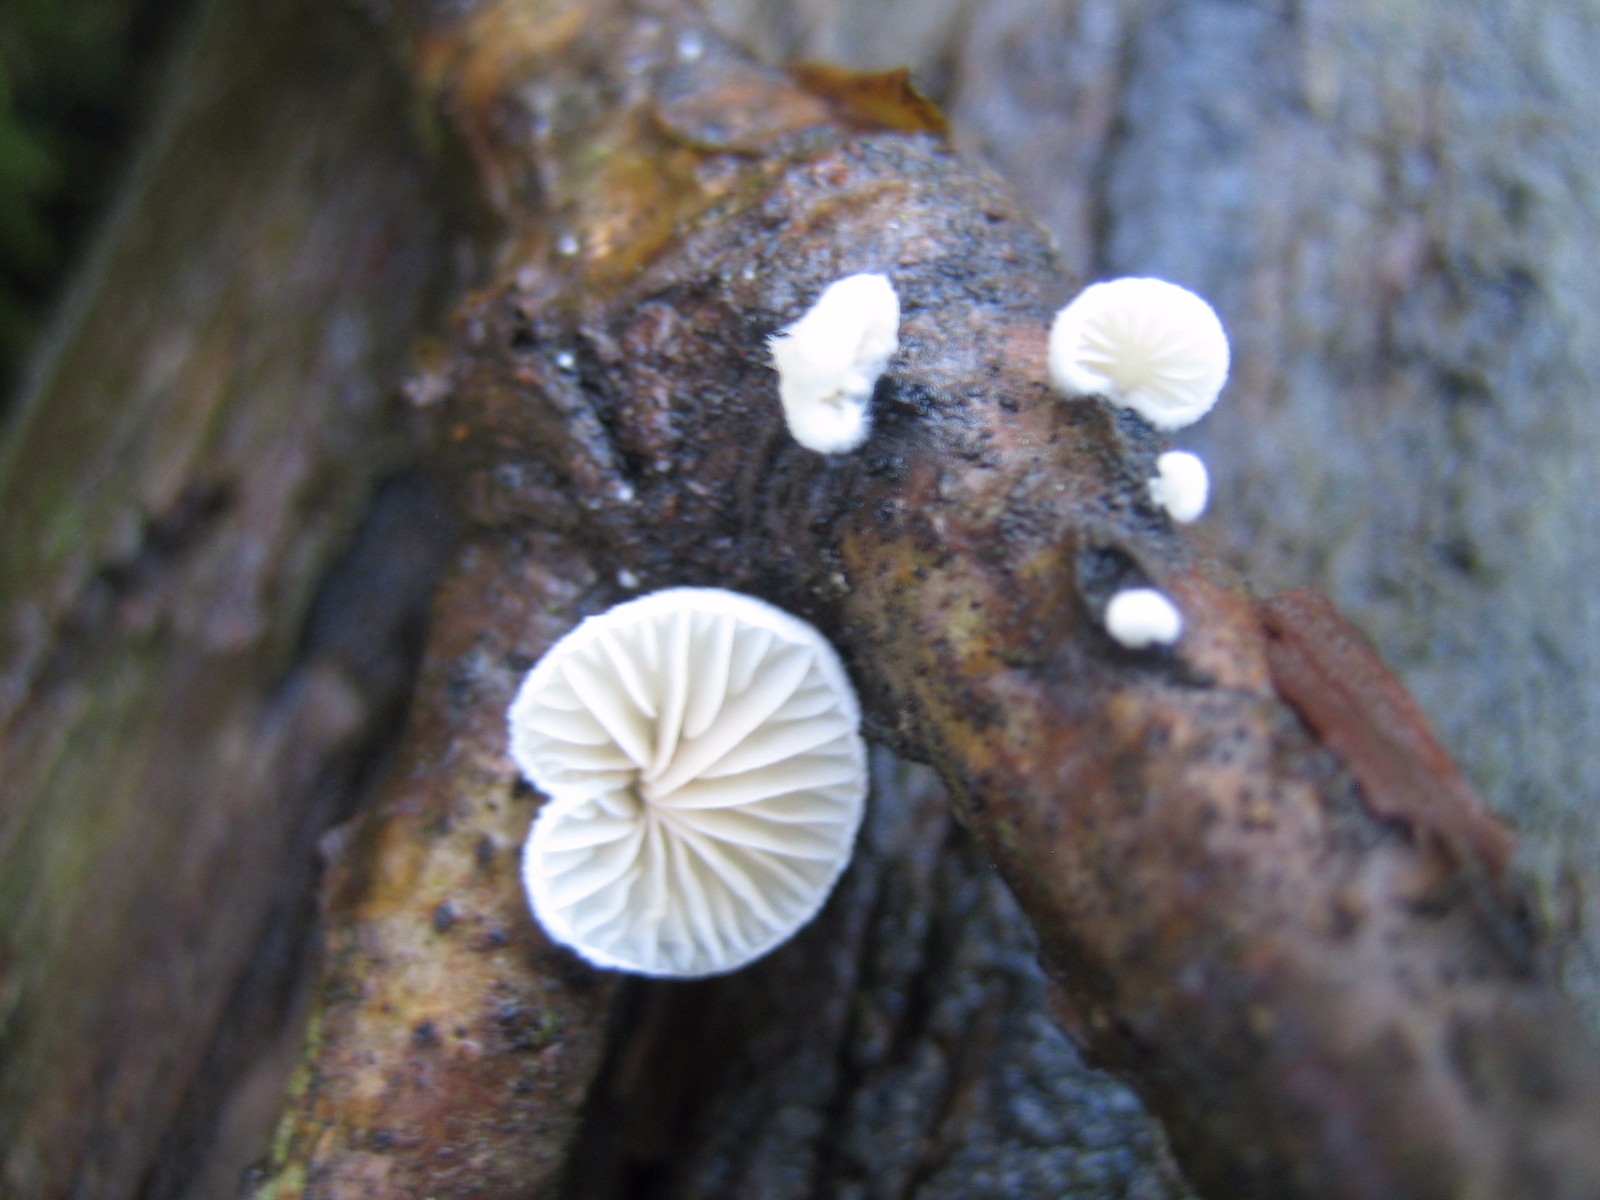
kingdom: Fungi
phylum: Basidiomycota
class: Agaricomycetes
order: Agaricales
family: Crepidotaceae
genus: Crepidotus
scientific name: Crepidotus
